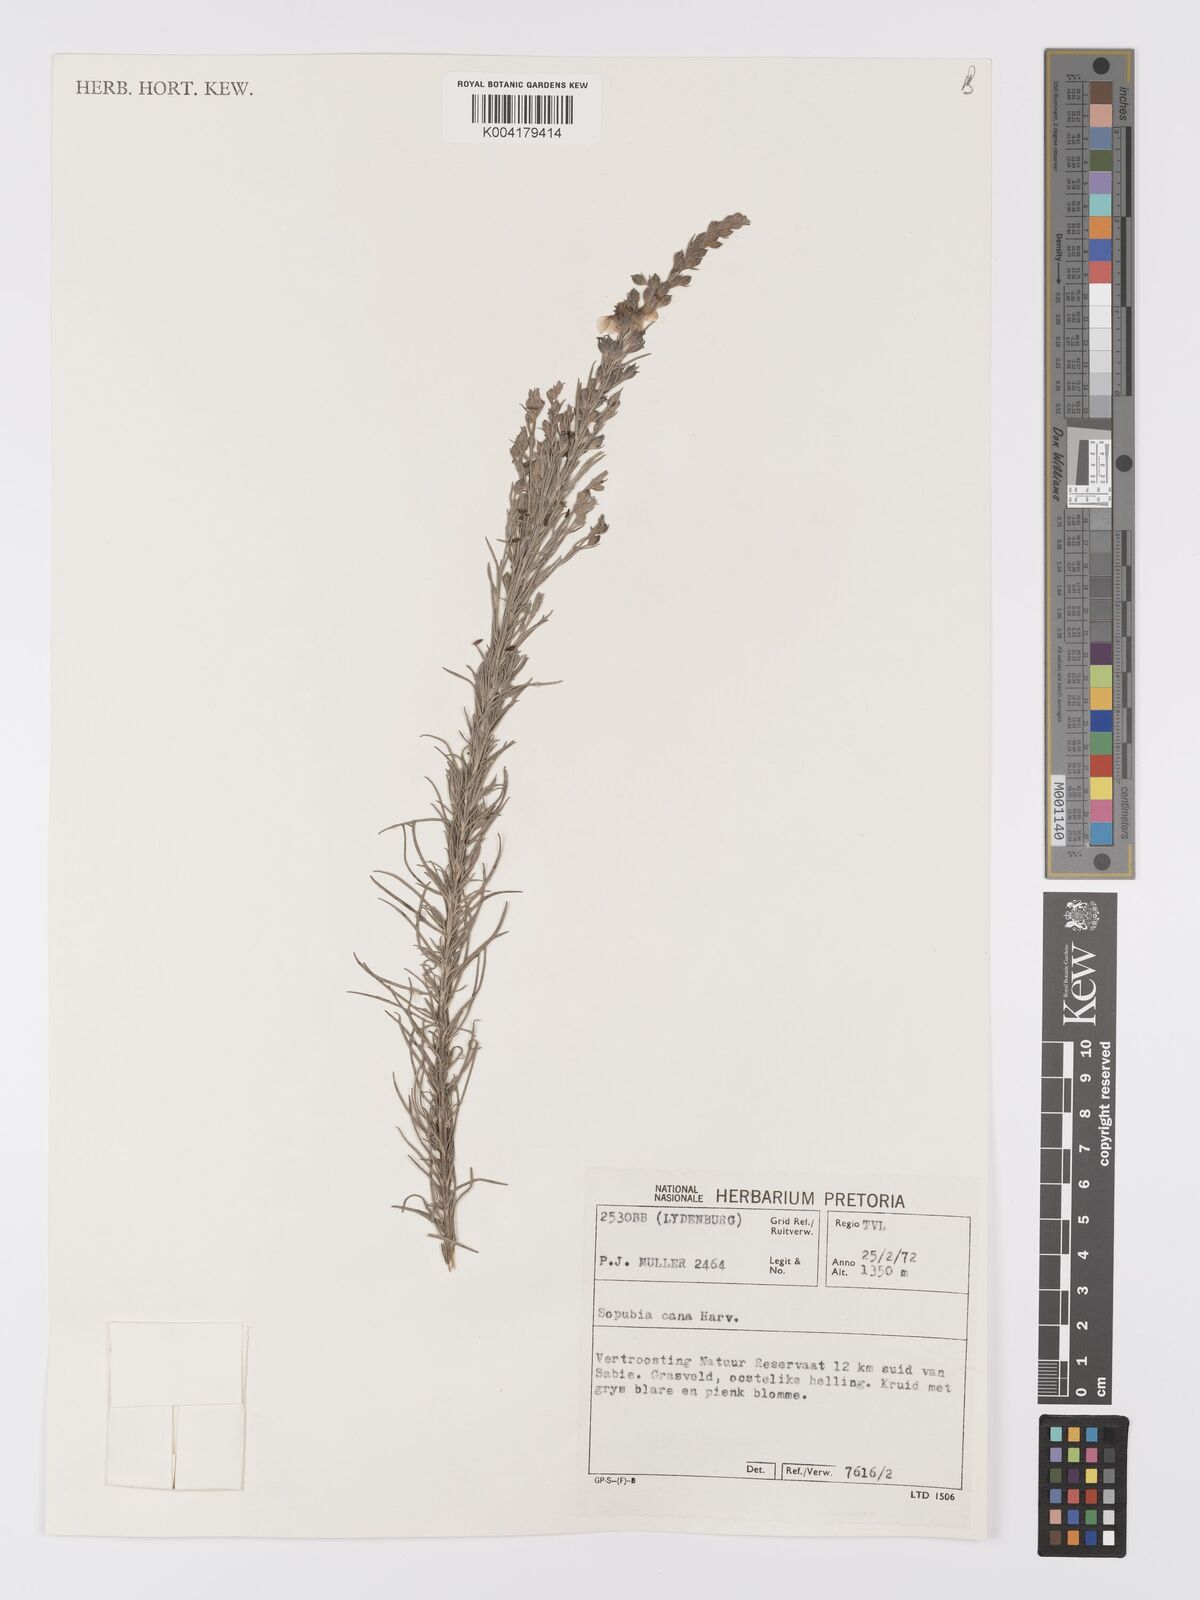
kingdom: Plantae
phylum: Tracheophyta
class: Magnoliopsida
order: Lamiales
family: Orobanchaceae
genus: Sopubia
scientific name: Sopubia cana
